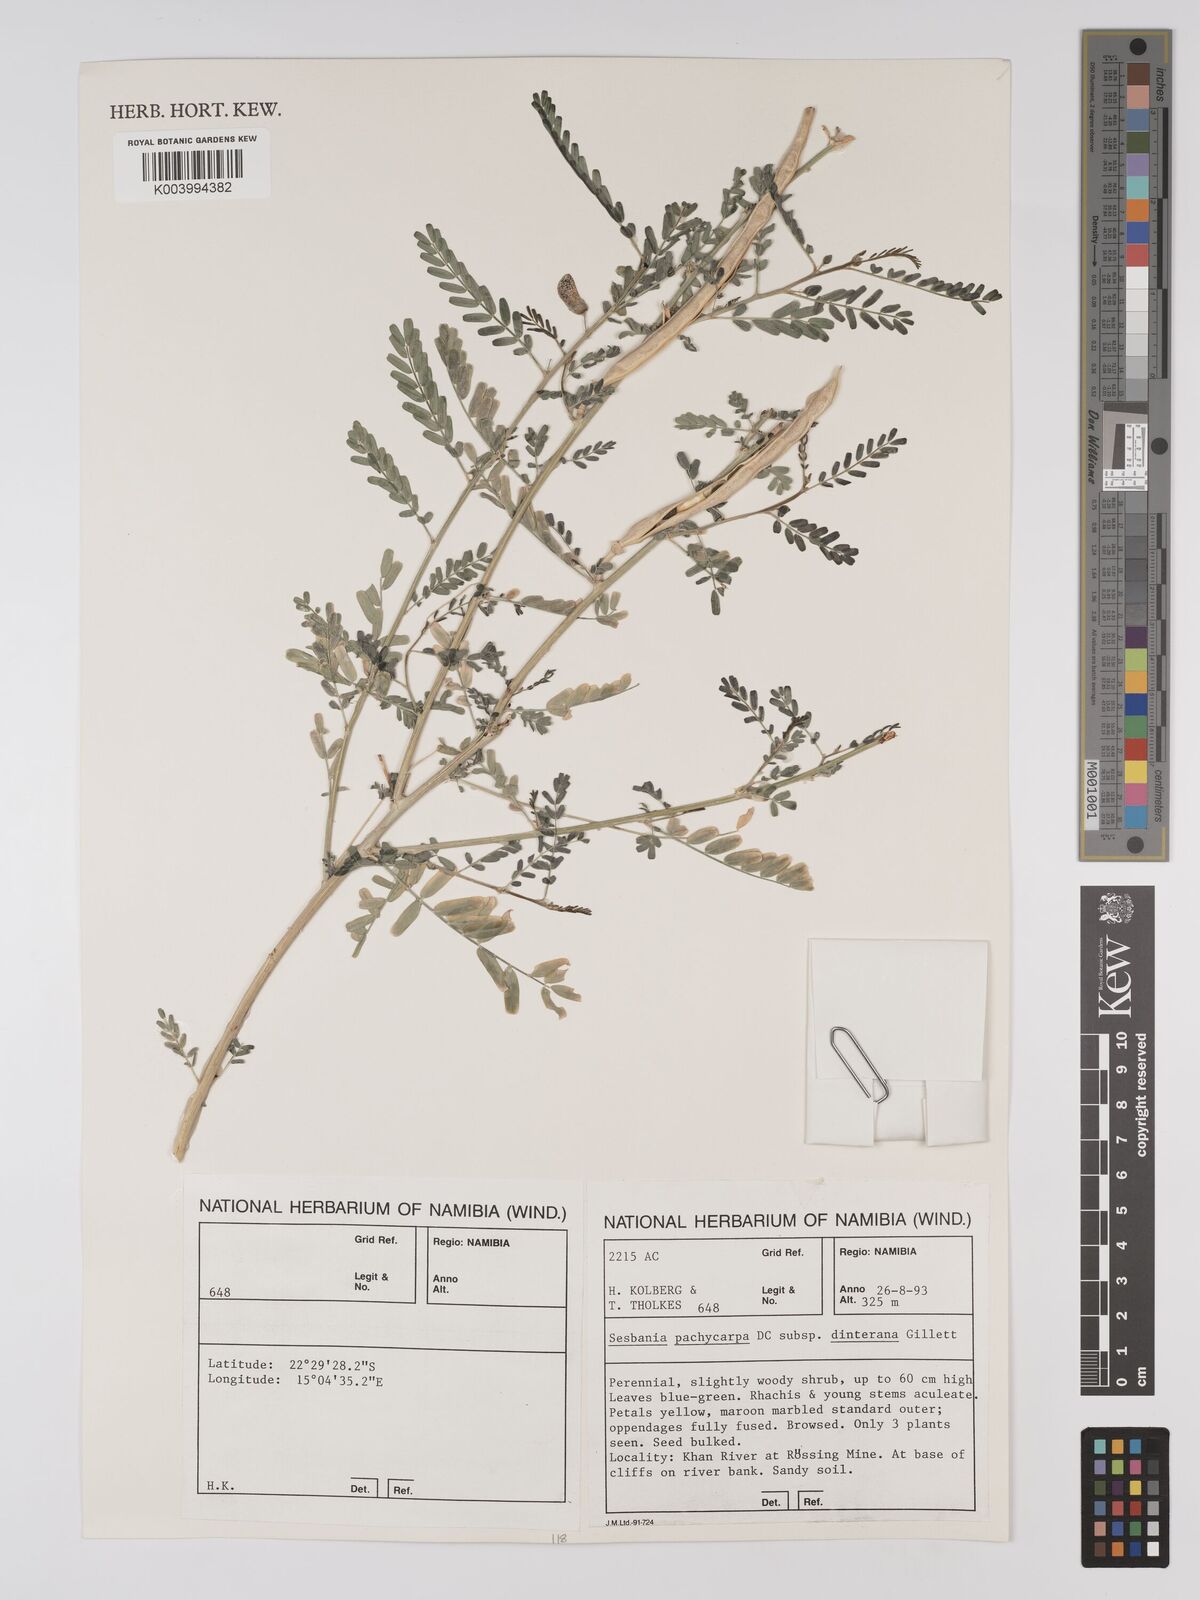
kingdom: Plantae
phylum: Tracheophyta
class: Magnoliopsida
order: Fabales
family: Fabaceae
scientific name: Fabaceae
